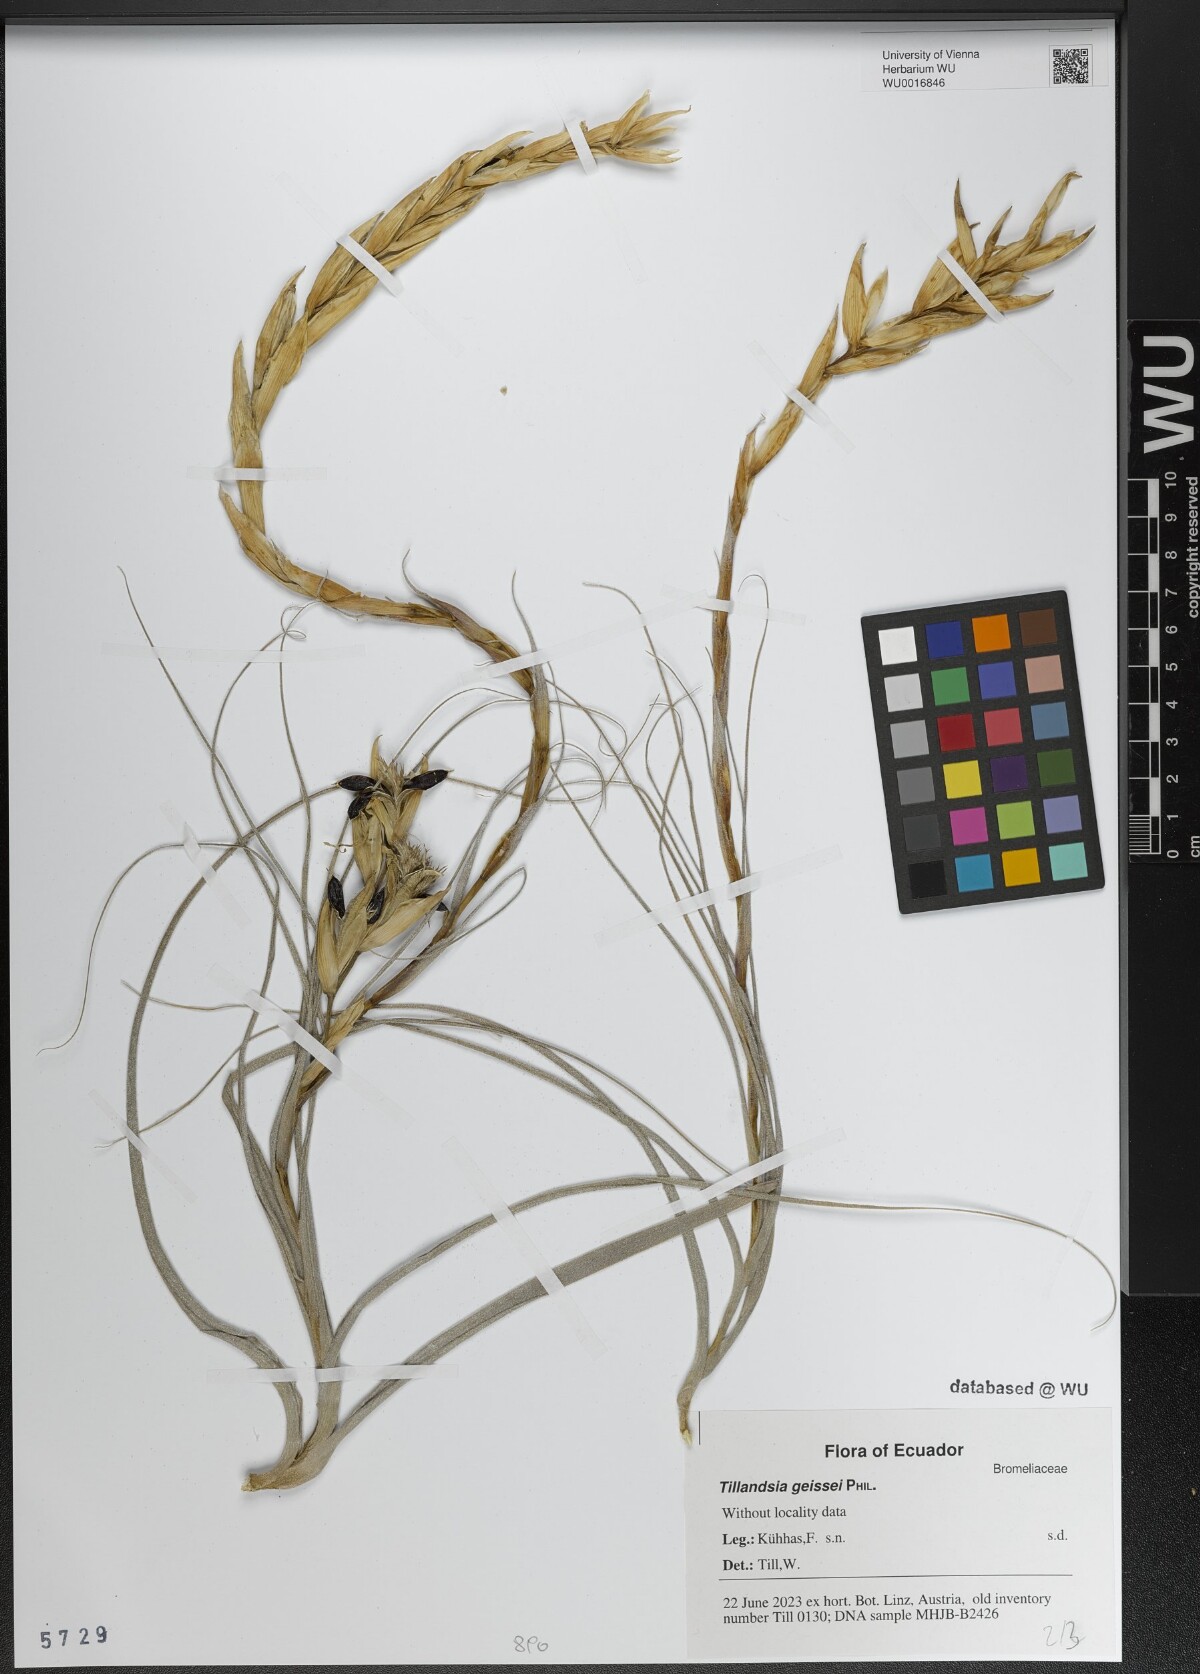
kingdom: Plantae
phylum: Tracheophyta
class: Liliopsida
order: Poales
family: Bromeliaceae
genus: Tillandsia
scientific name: Tillandsia geissei
